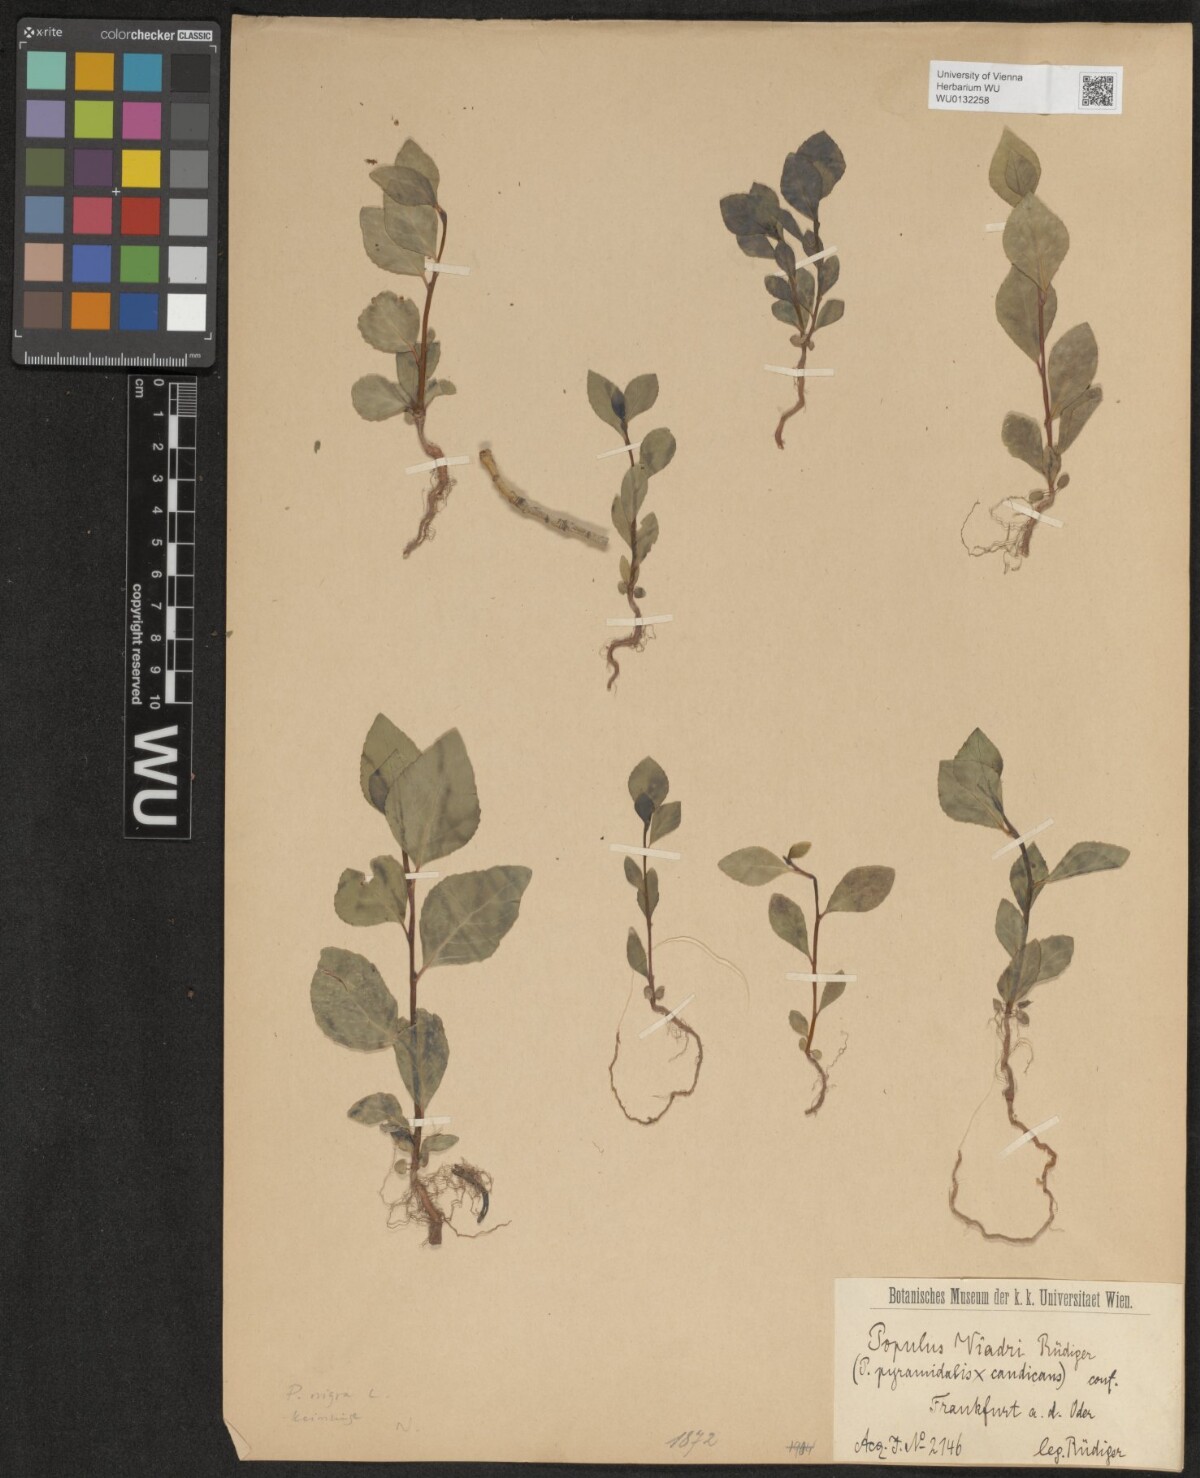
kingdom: Plantae
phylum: Tracheophyta
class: Magnoliopsida
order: Malpighiales
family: Salicaceae
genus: Populus
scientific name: Populus nigra
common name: Black poplar
